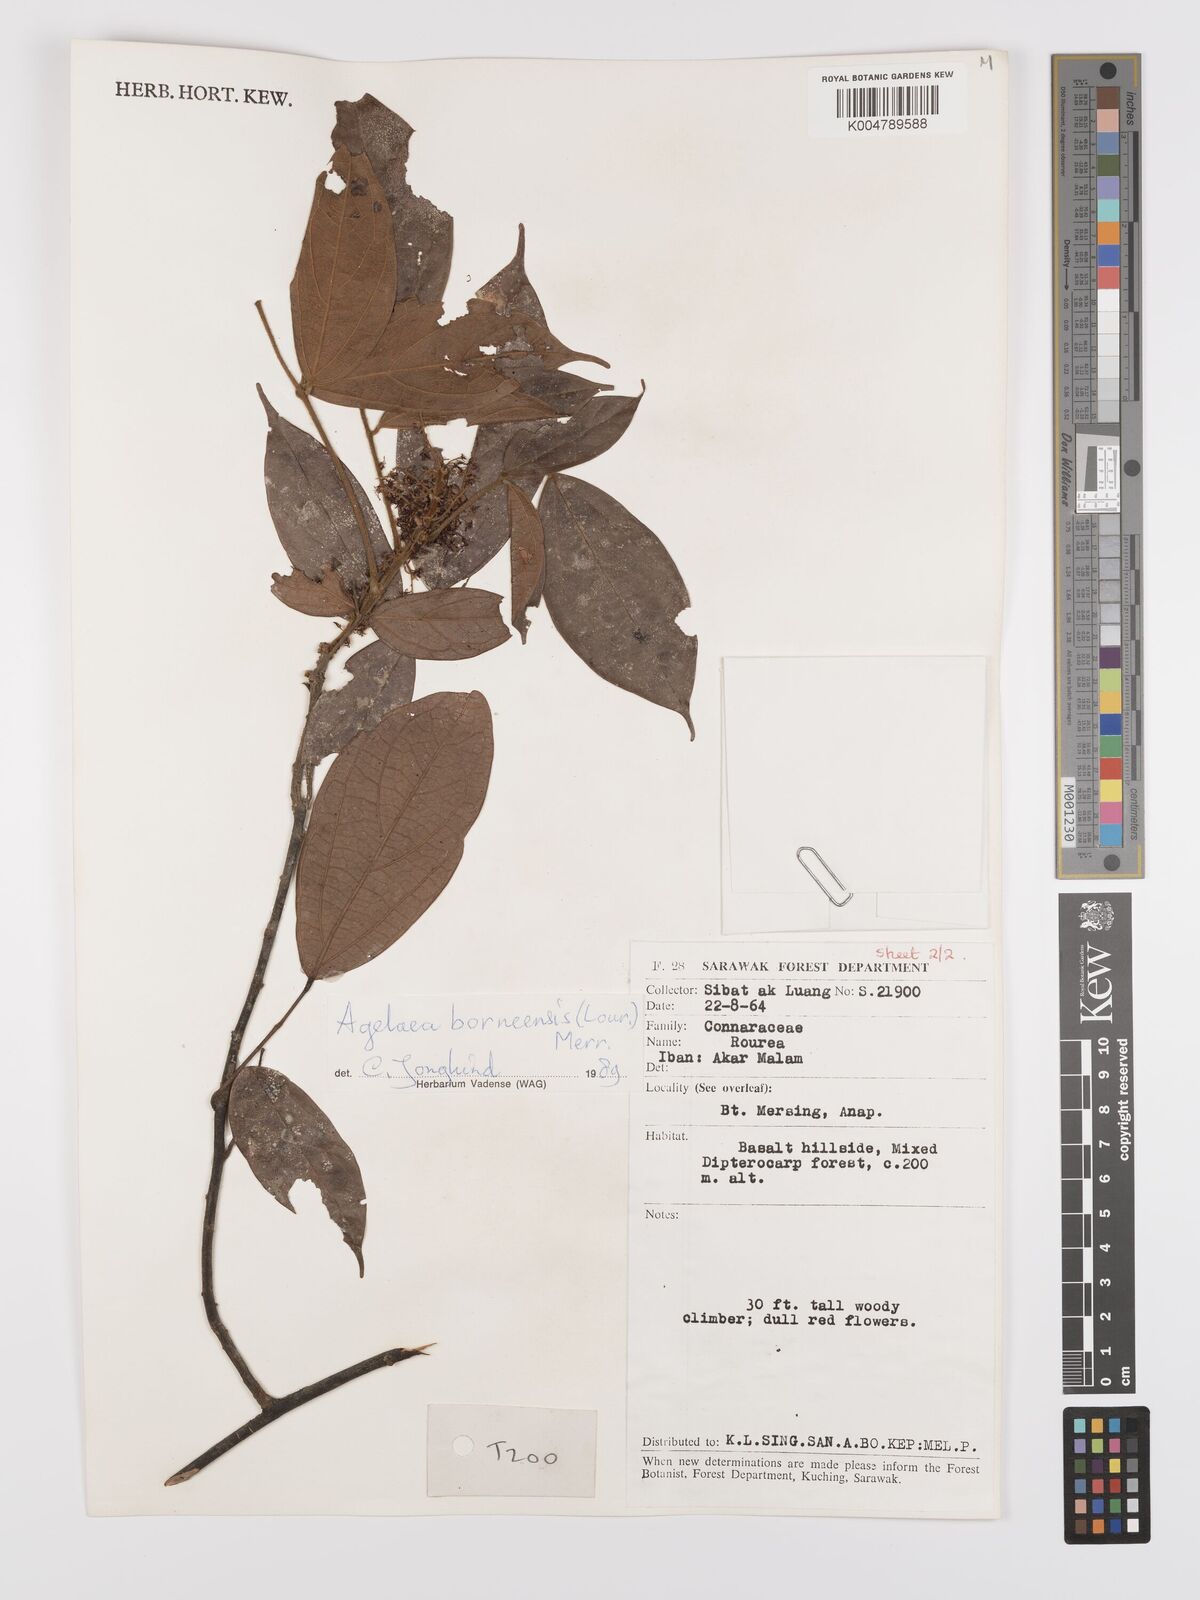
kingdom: Plantae
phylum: Tracheophyta
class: Magnoliopsida
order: Oxalidales
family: Connaraceae
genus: Agelaea
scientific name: Agelaea borneensis
